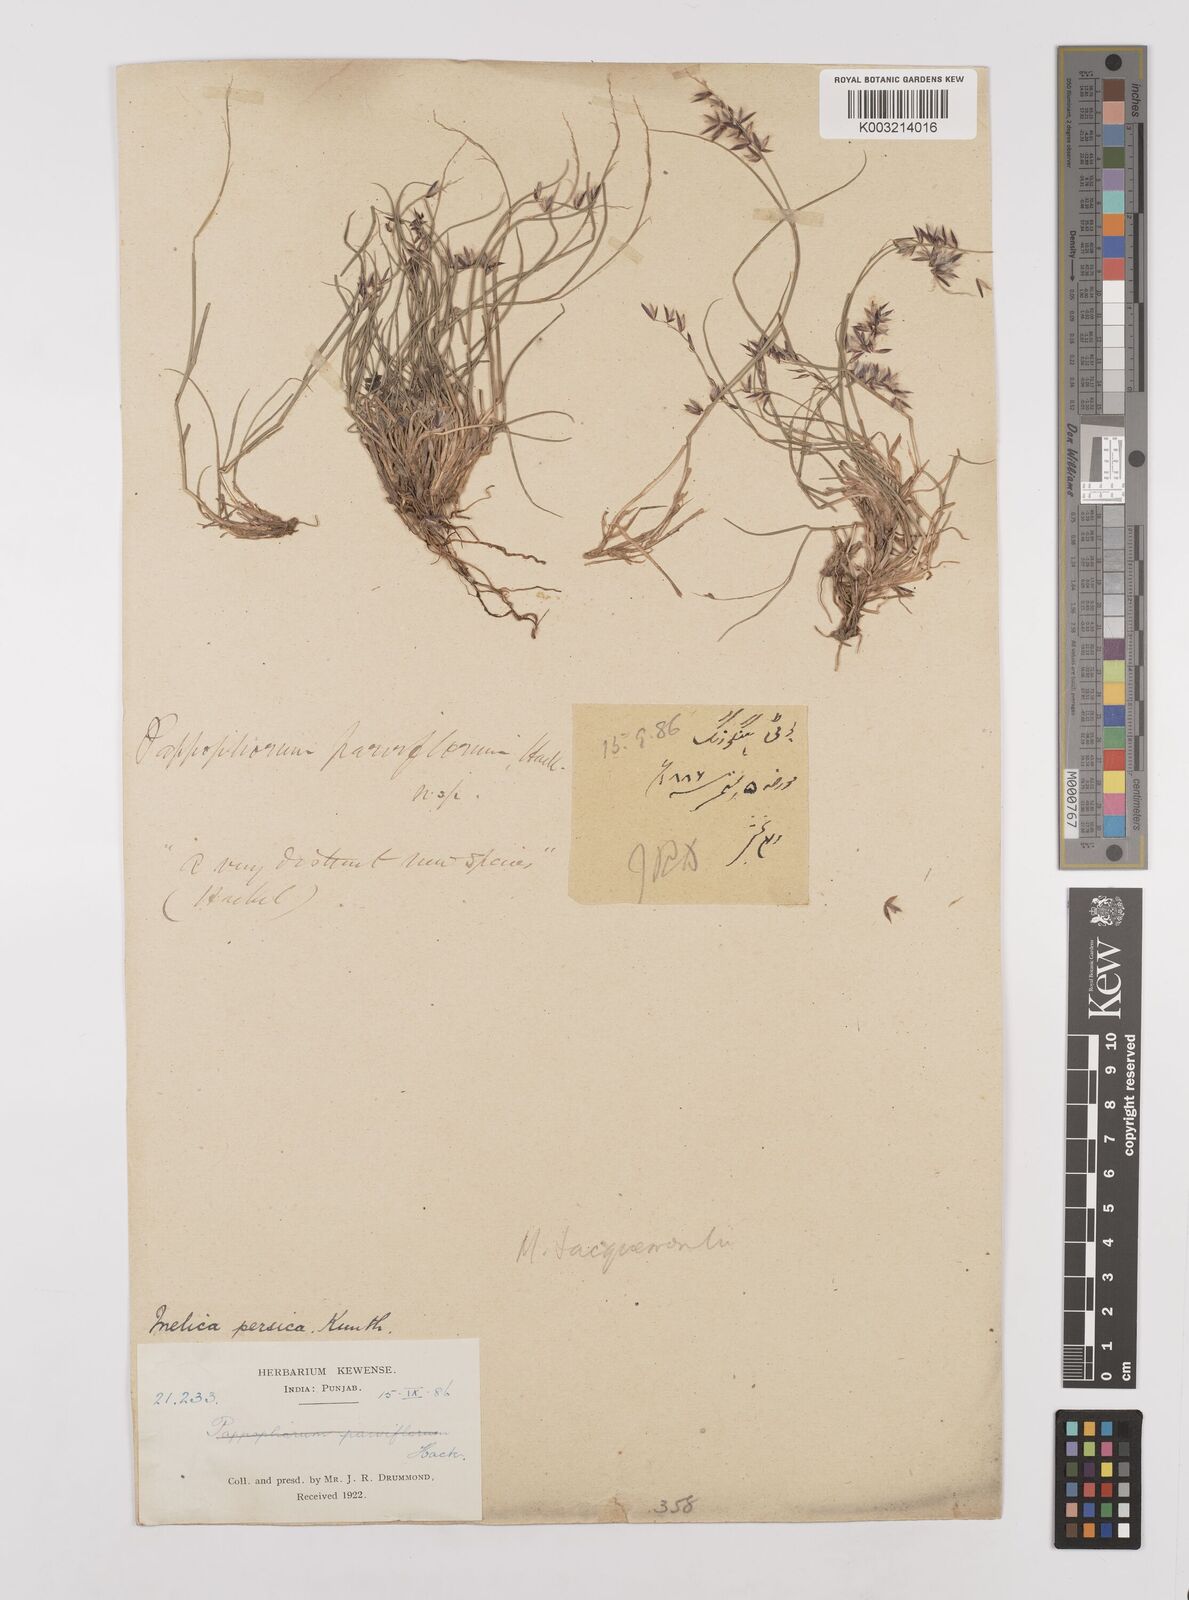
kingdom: Plantae
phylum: Tracheophyta
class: Liliopsida
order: Poales
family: Poaceae
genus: Melica
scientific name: Melica persica
